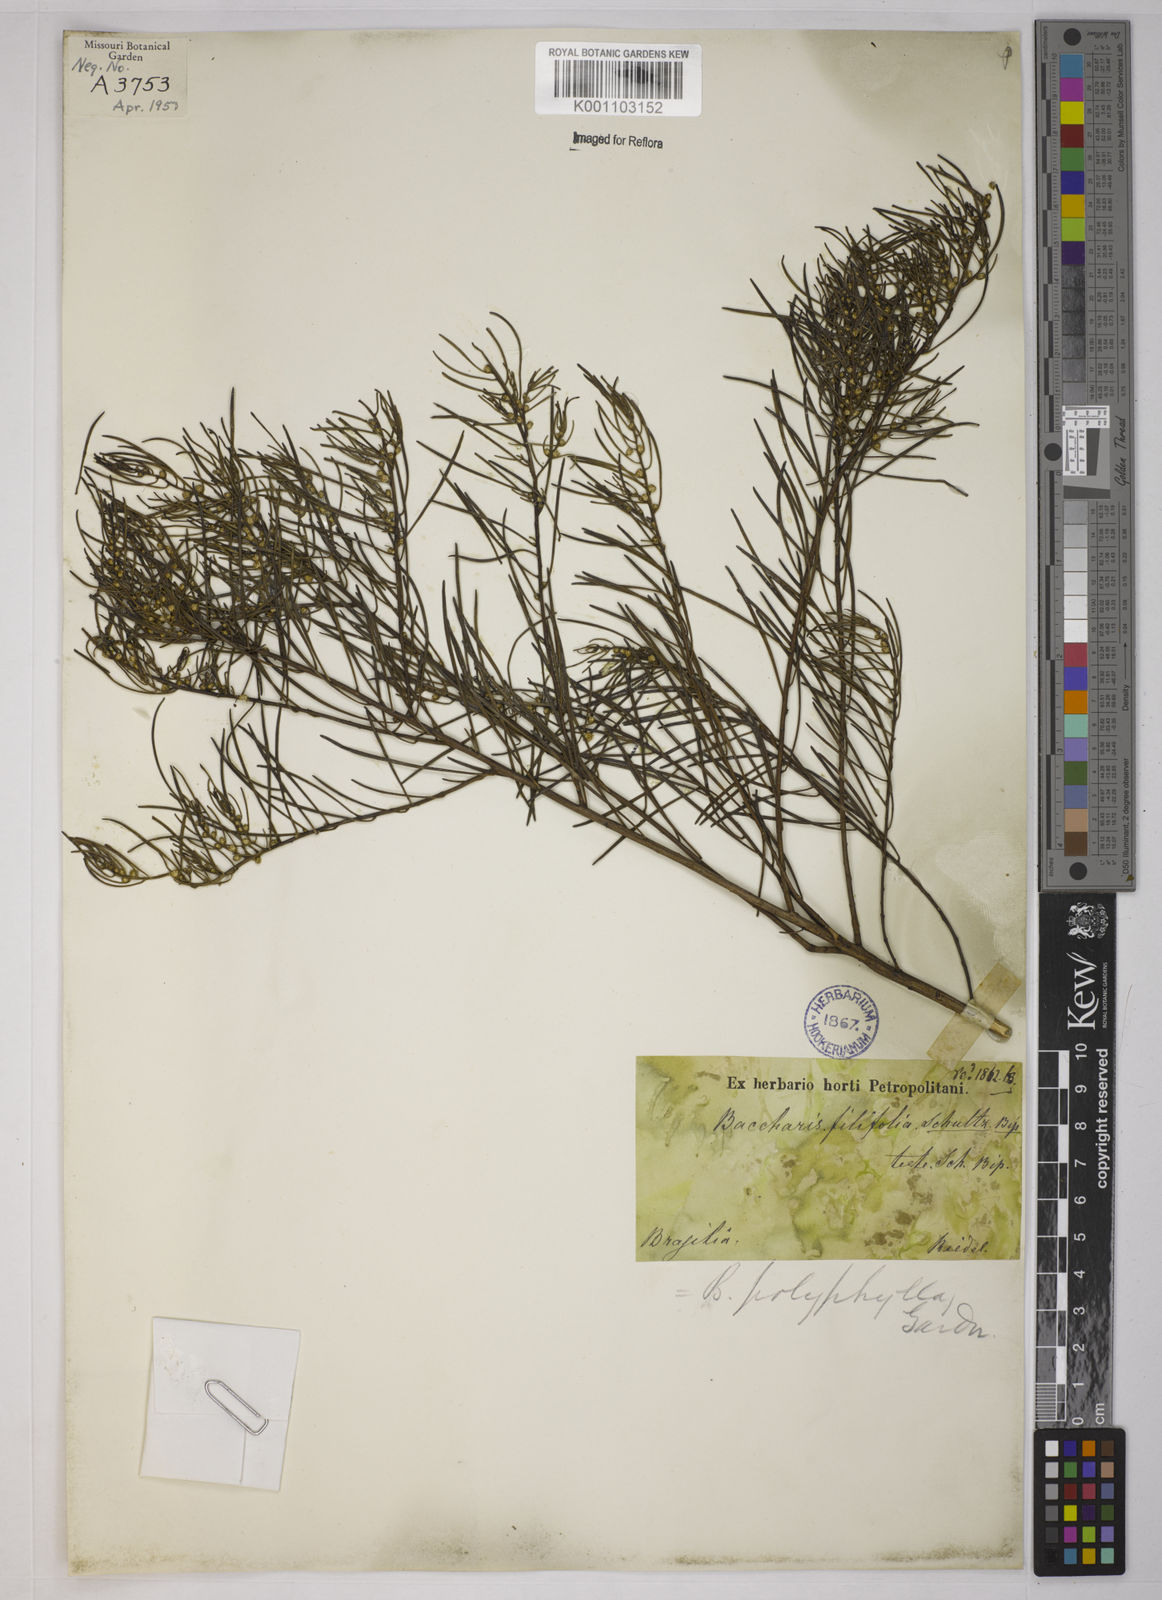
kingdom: Plantae
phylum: Tracheophyta
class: Magnoliopsida
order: Asterales
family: Asteraceae
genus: Baccharis
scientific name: Baccharis polyphylla
